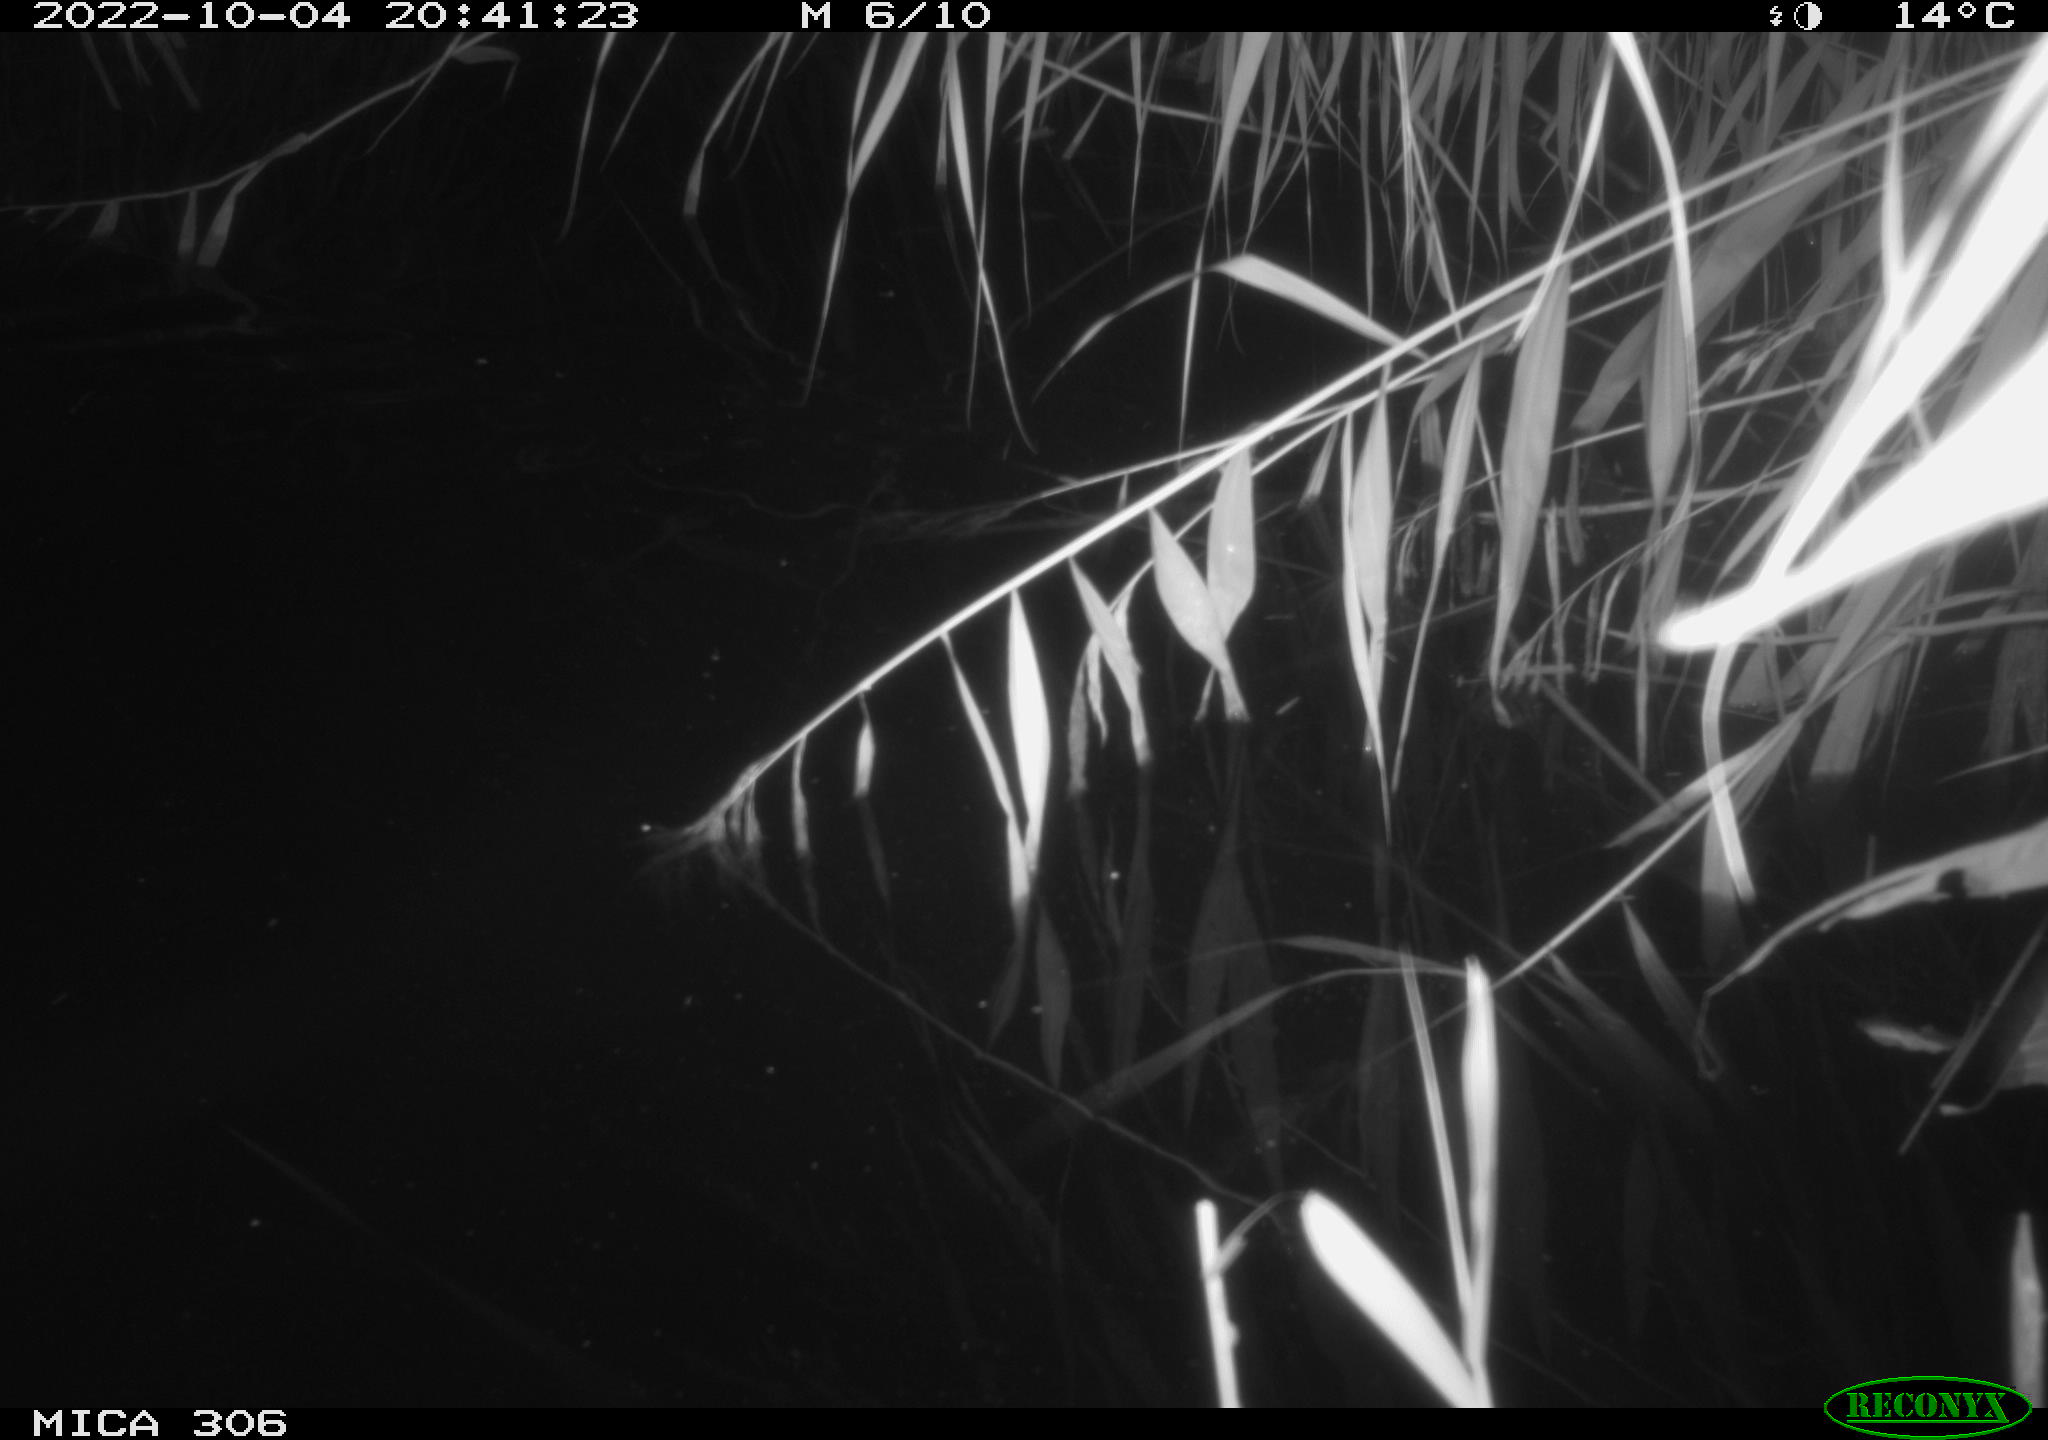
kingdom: Animalia
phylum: Chordata
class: Mammalia
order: Rodentia
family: Muridae
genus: Rattus
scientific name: Rattus norvegicus
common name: Brown rat
